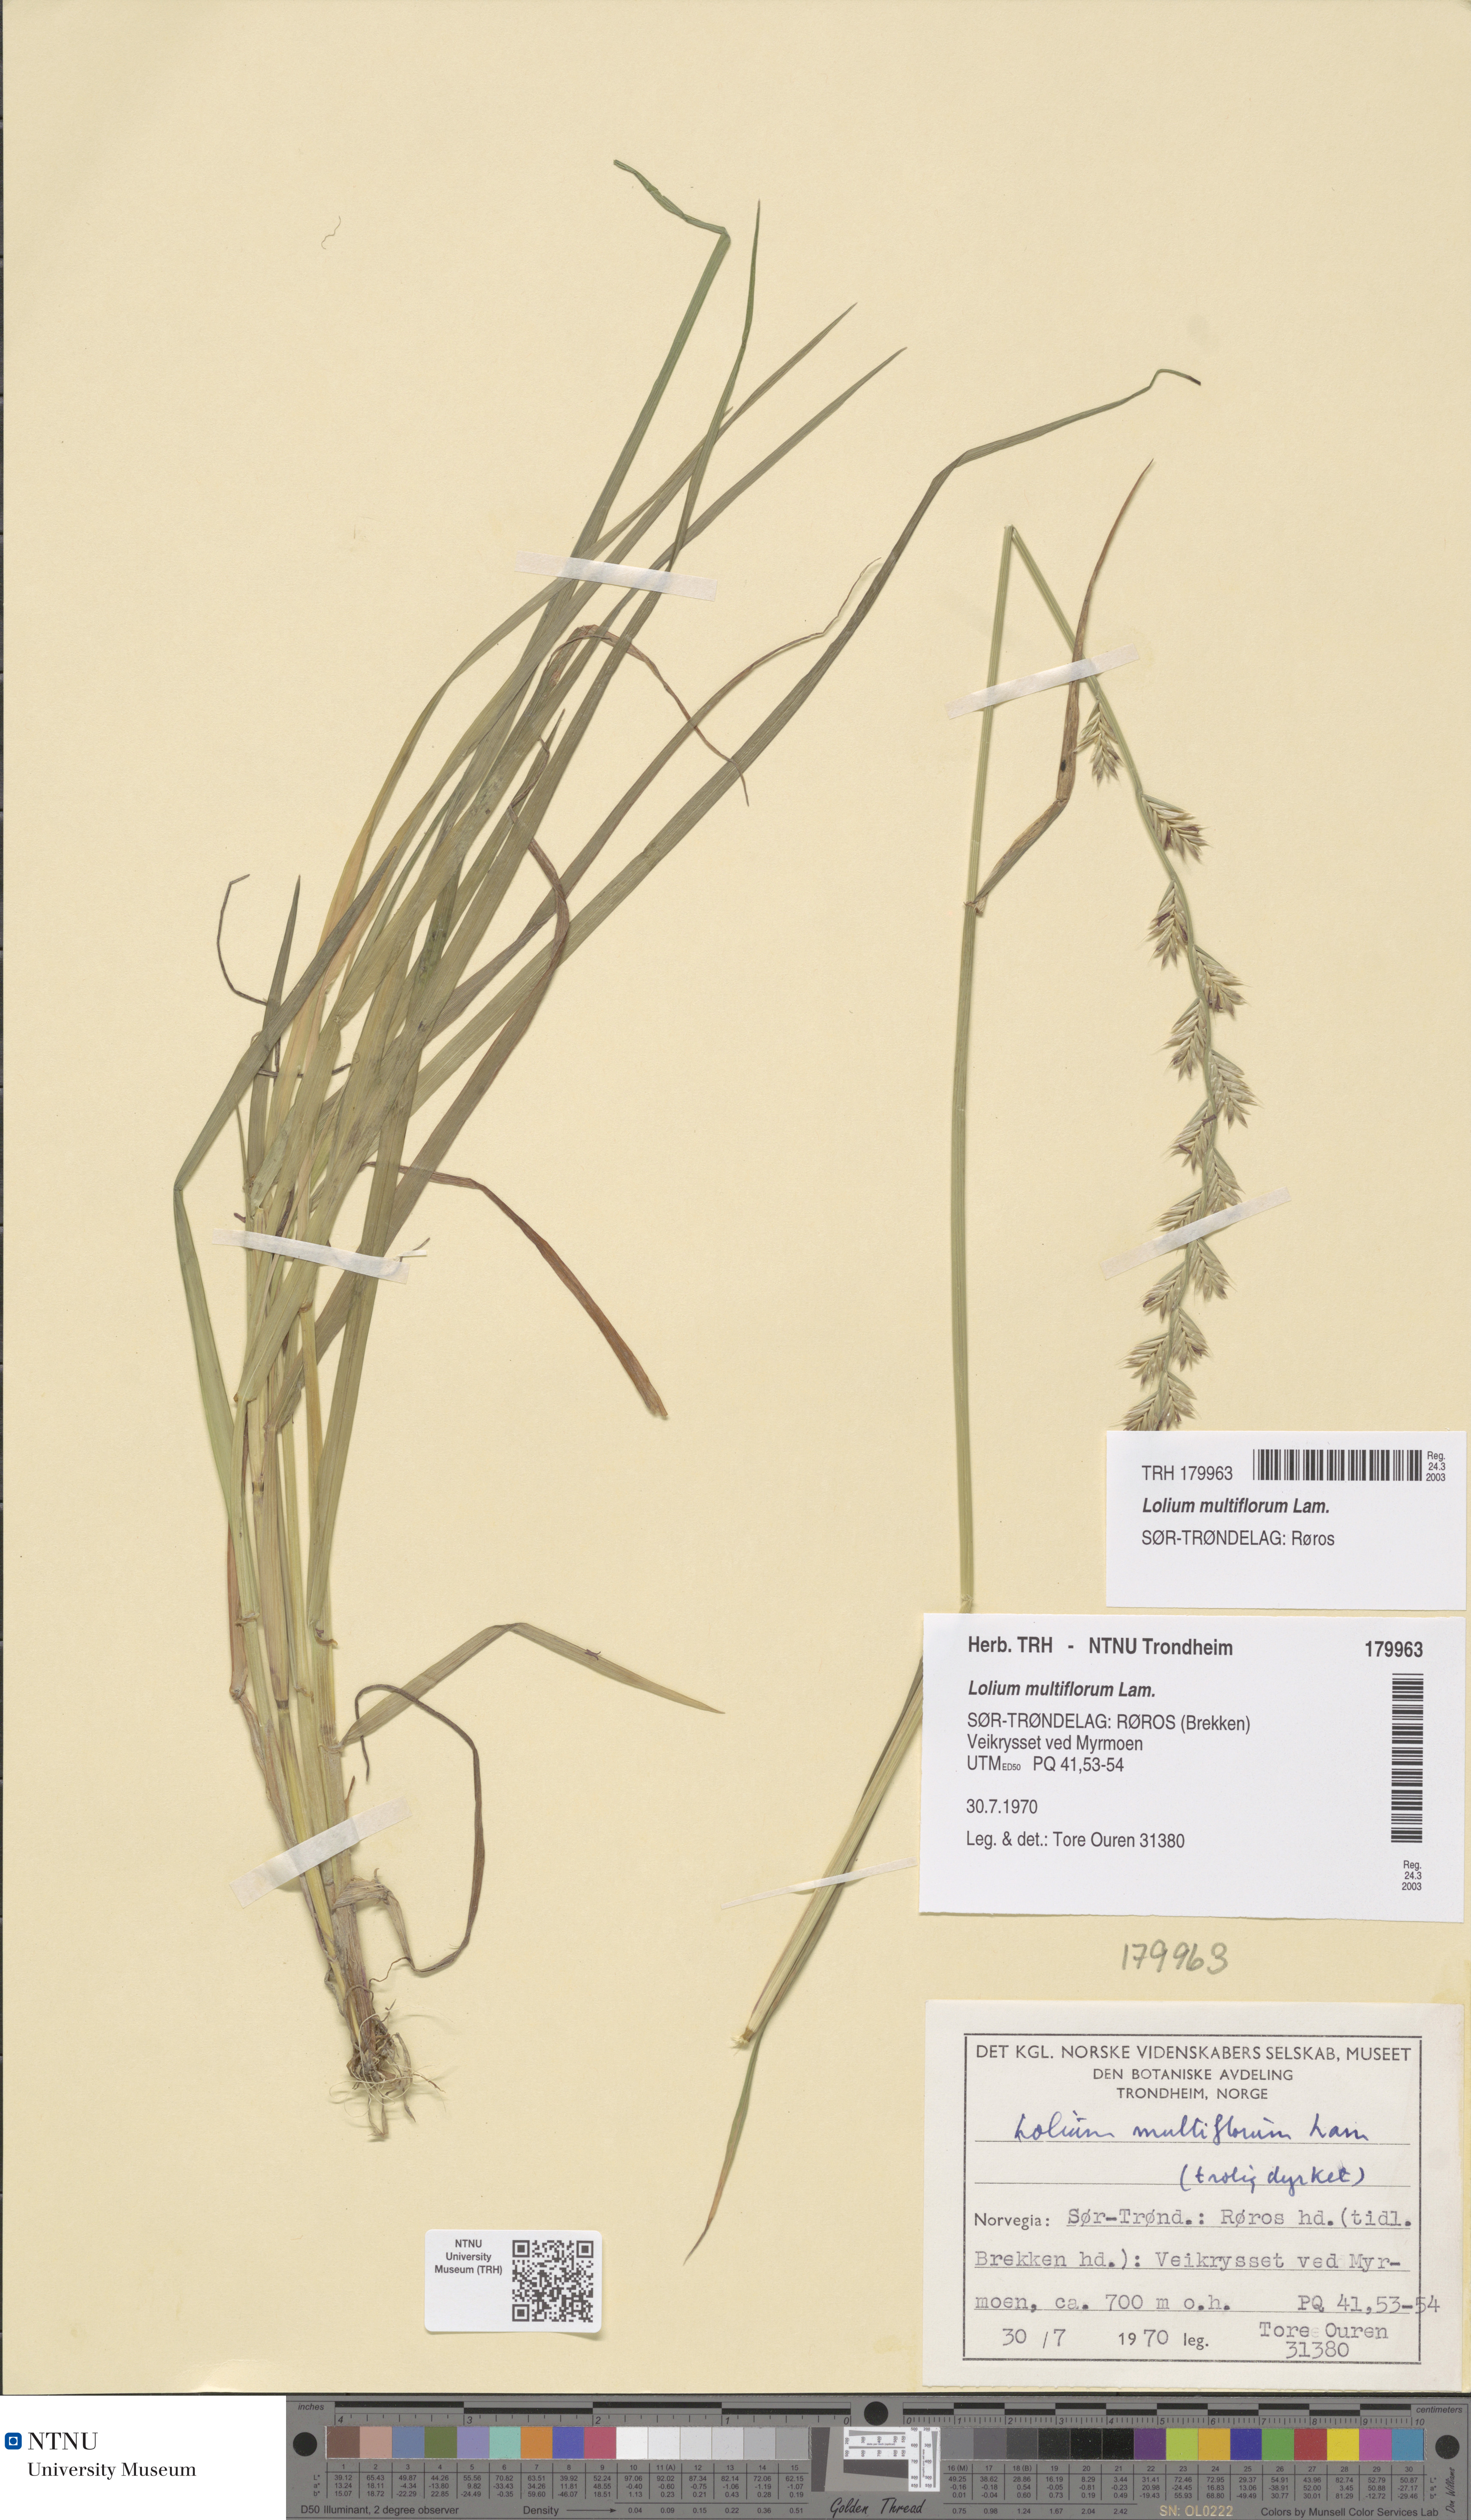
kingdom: Plantae
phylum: Tracheophyta
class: Liliopsida
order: Poales
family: Poaceae
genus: Lolium
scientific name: Lolium multiflorum
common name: Annual ryegrass
